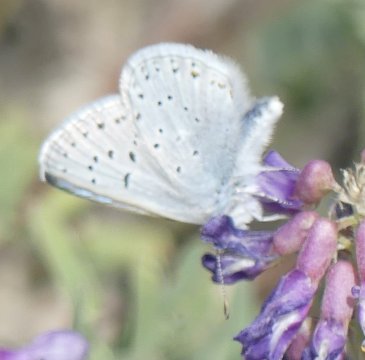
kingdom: Animalia
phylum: Arthropoda
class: Insecta
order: Lepidoptera
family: Lycaenidae
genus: Plebejus
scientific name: Plebejus saepiolus
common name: Greenish Blue
